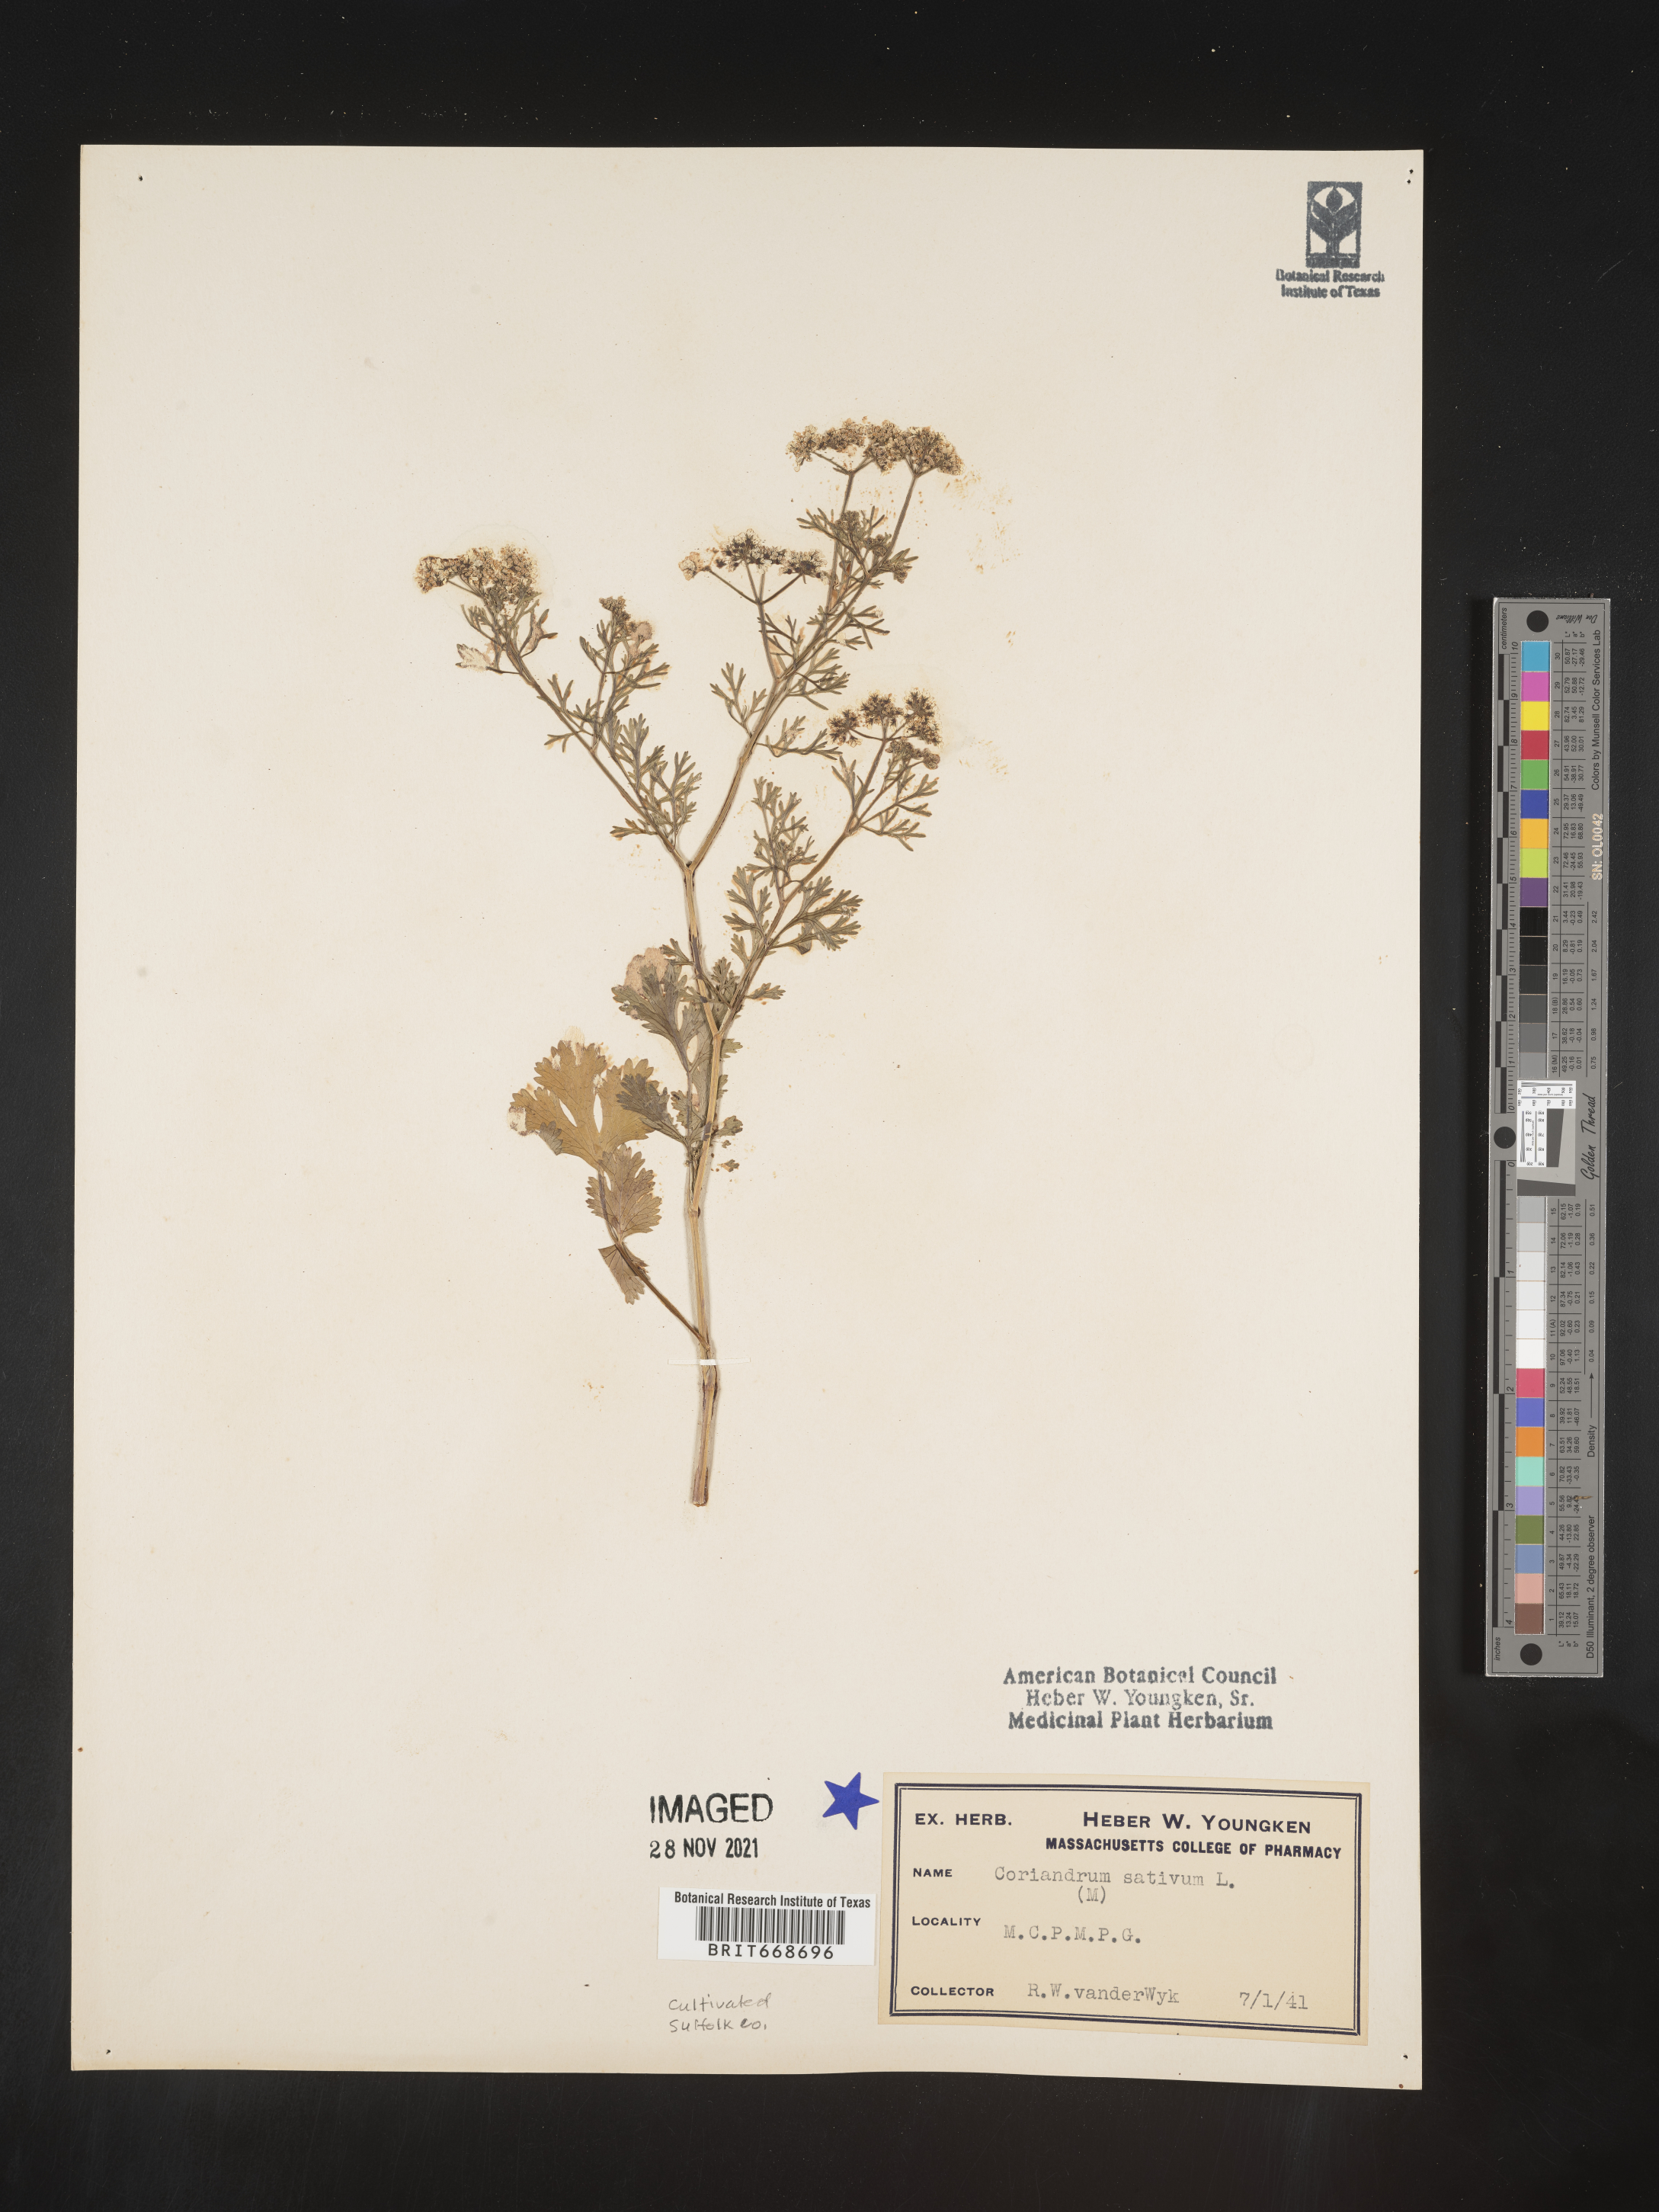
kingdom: Plantae
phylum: Tracheophyta
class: Magnoliopsida
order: Apiales
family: Apiaceae
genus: Coriandrum
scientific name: Coriandrum
